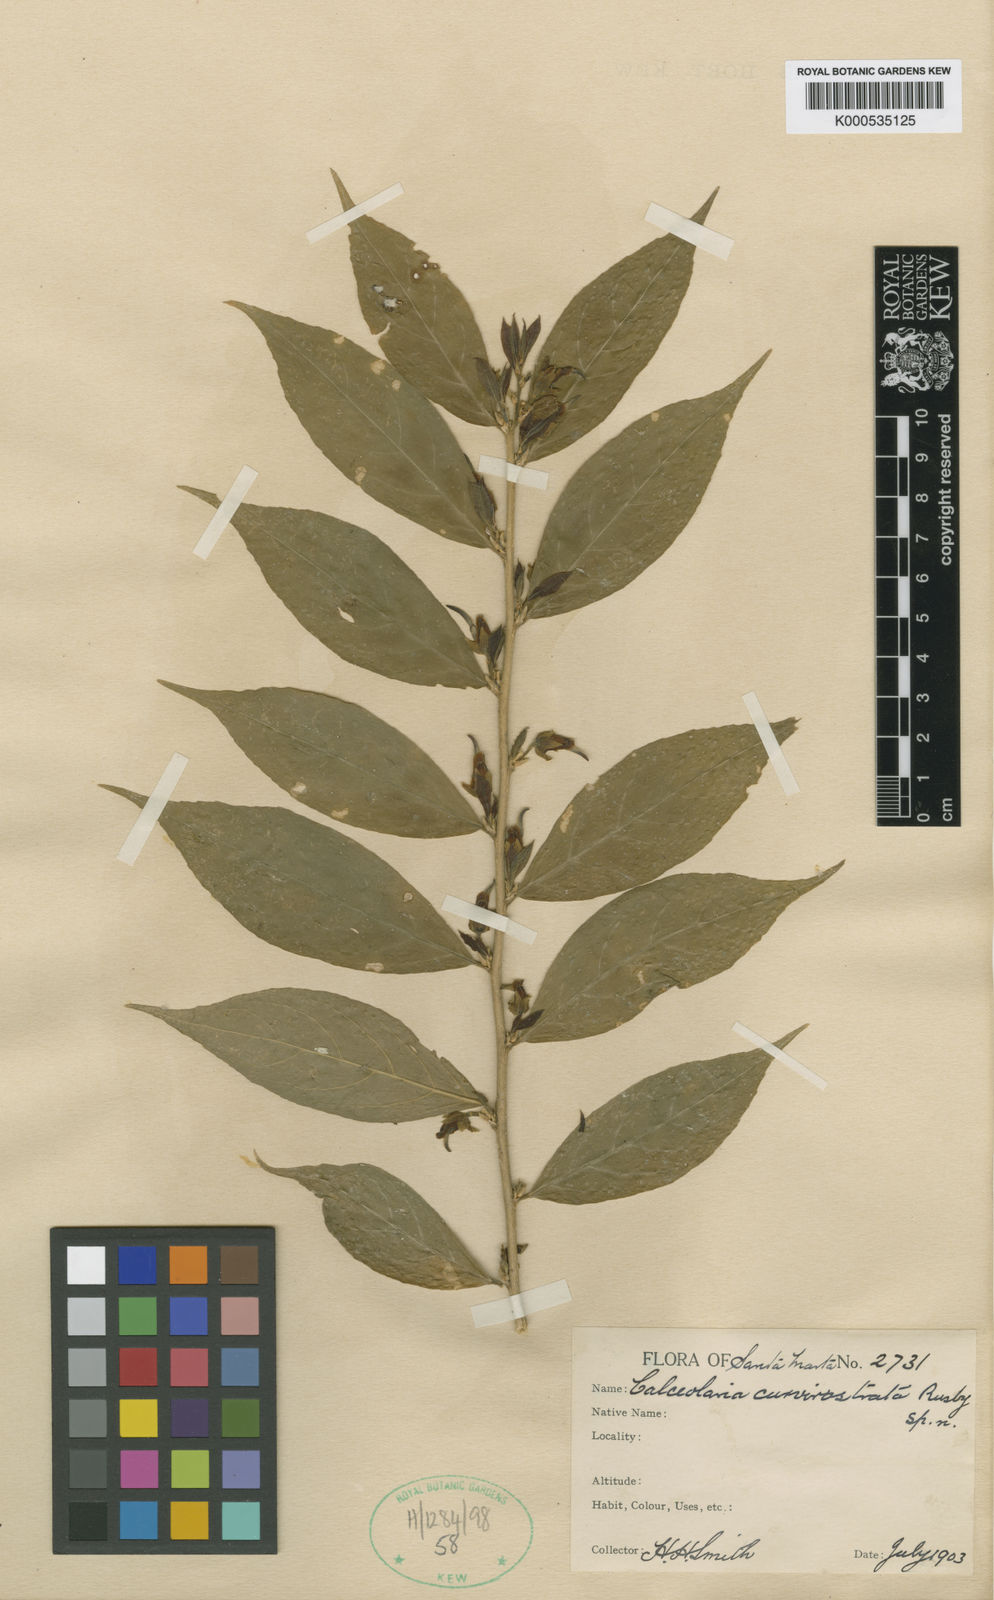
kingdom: Plantae
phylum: Tracheophyta
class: Magnoliopsida
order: Malpighiales
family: Violaceae
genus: Hybanthus
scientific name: Hybanthus
